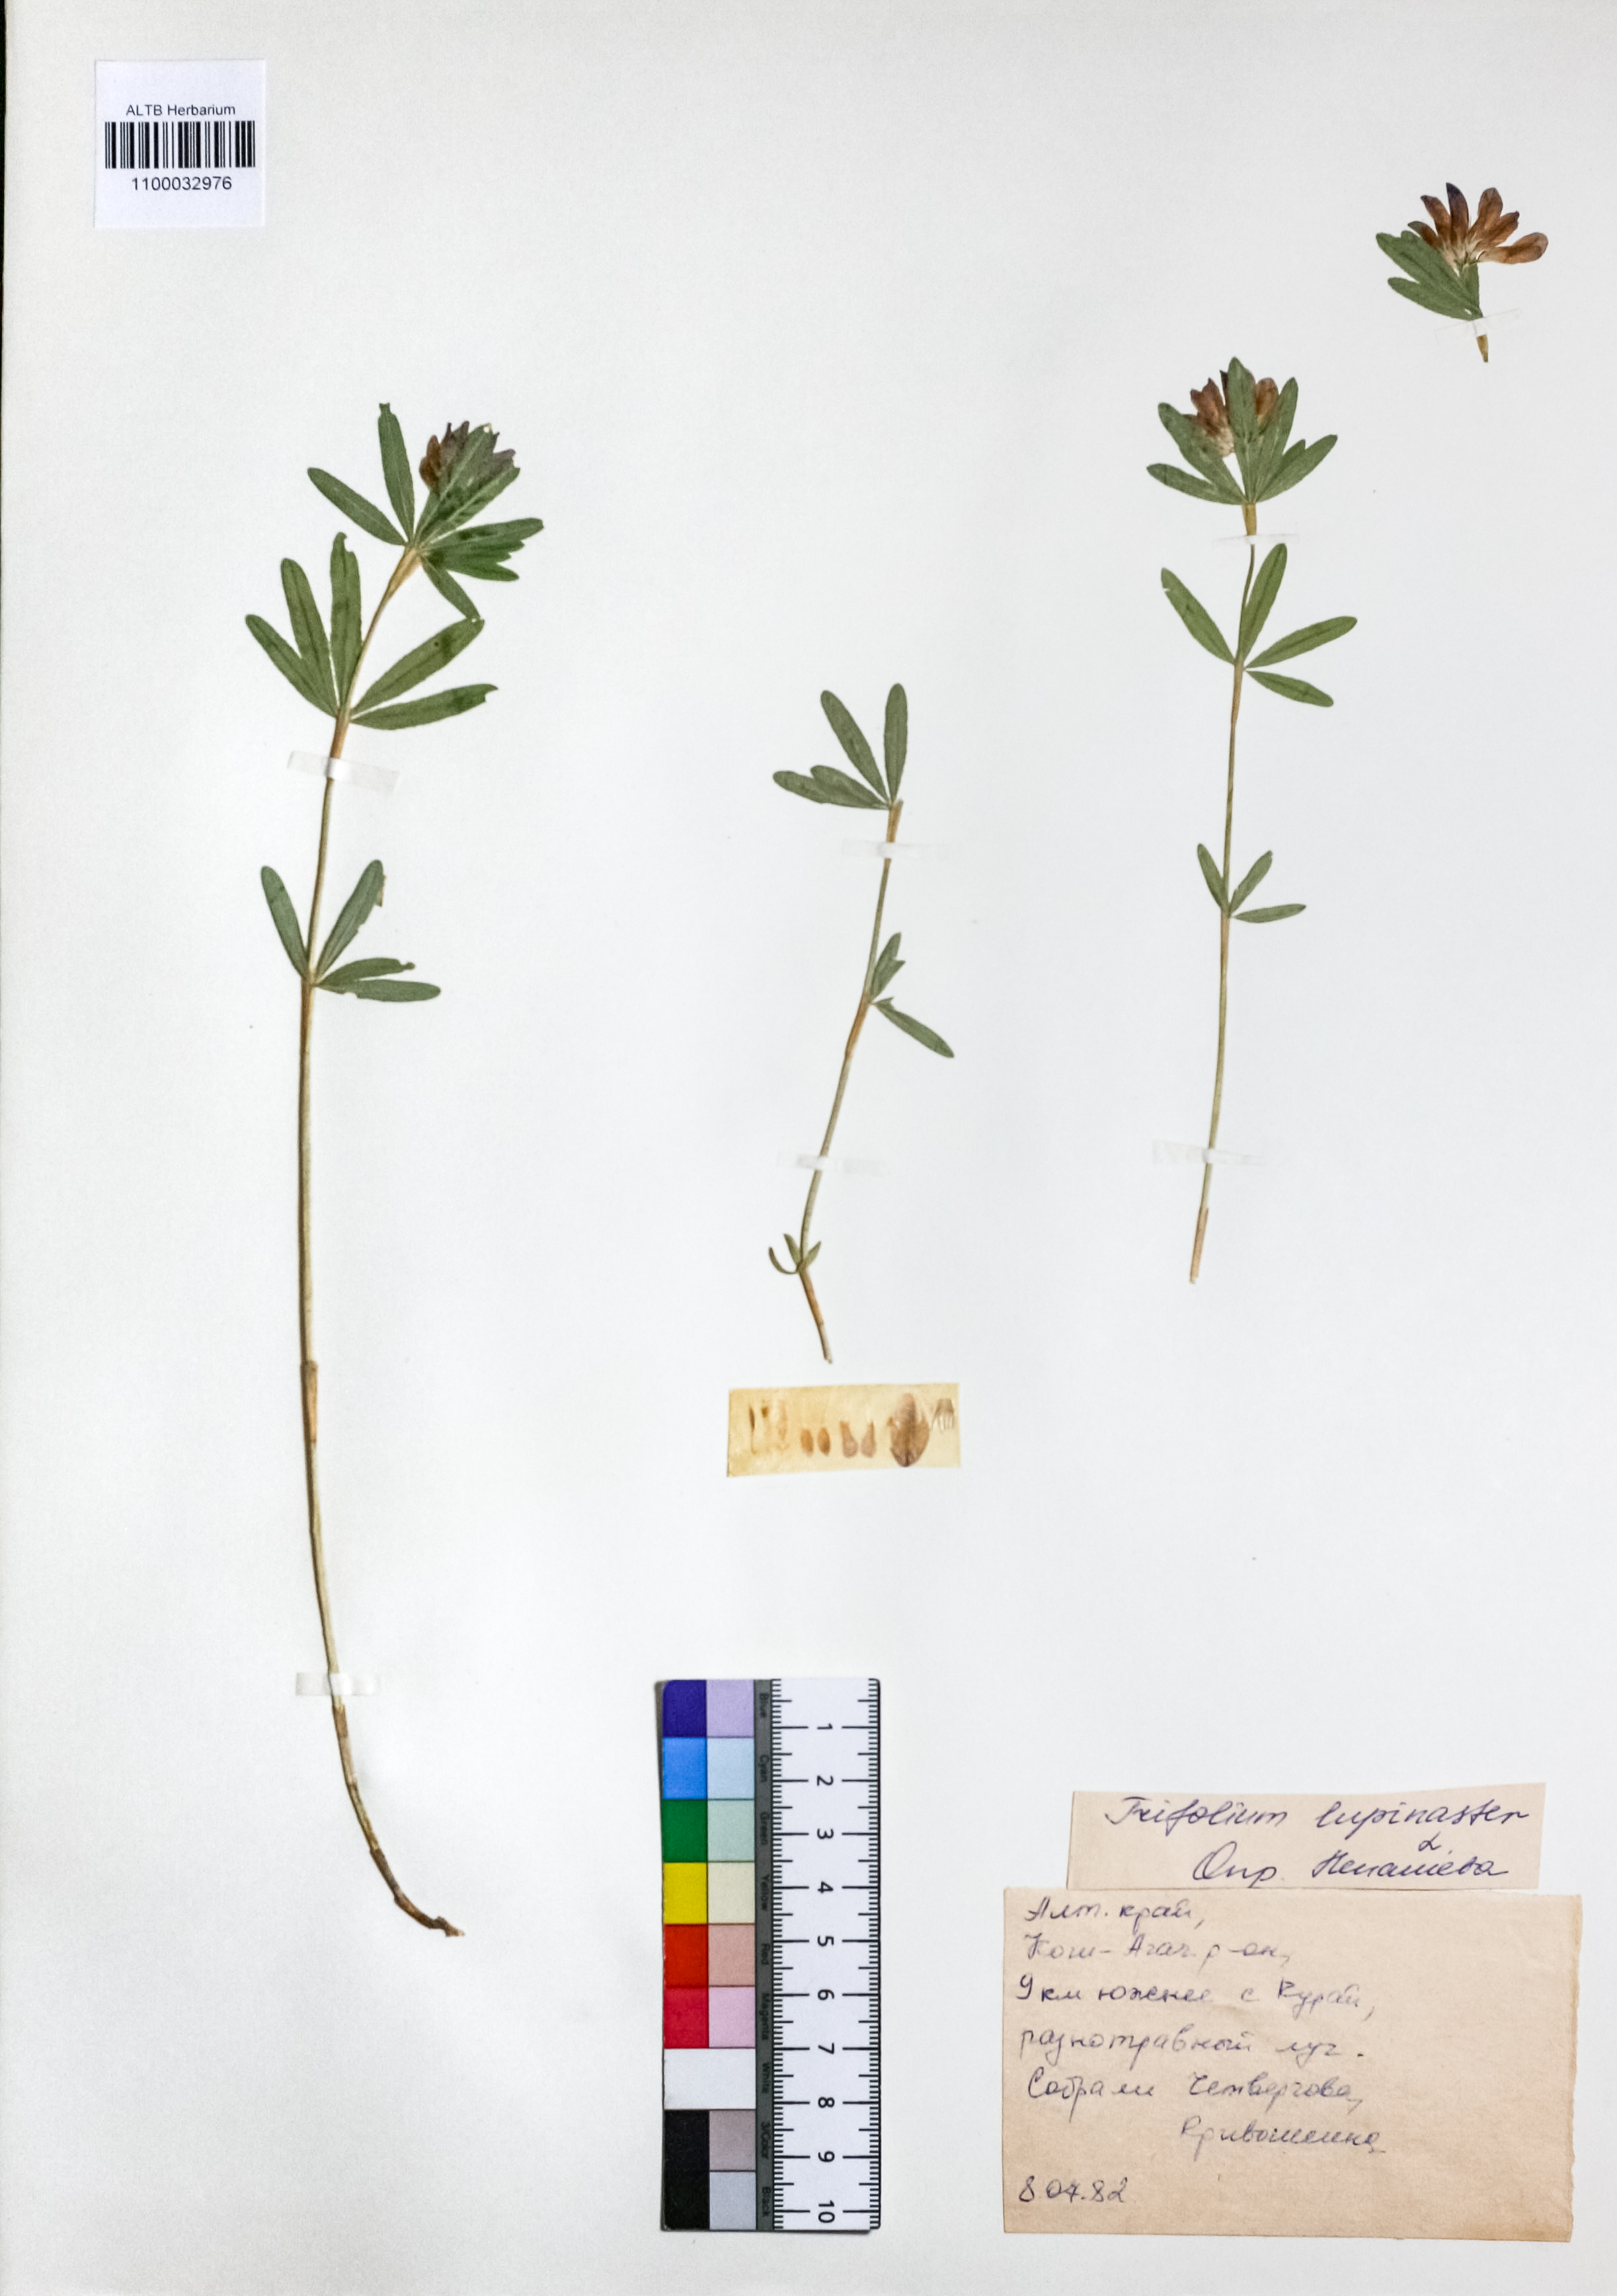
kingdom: Plantae
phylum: Tracheophyta
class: Magnoliopsida
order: Fabales
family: Fabaceae
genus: Trifolium
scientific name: Trifolium lupinaster
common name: Lupine clover
